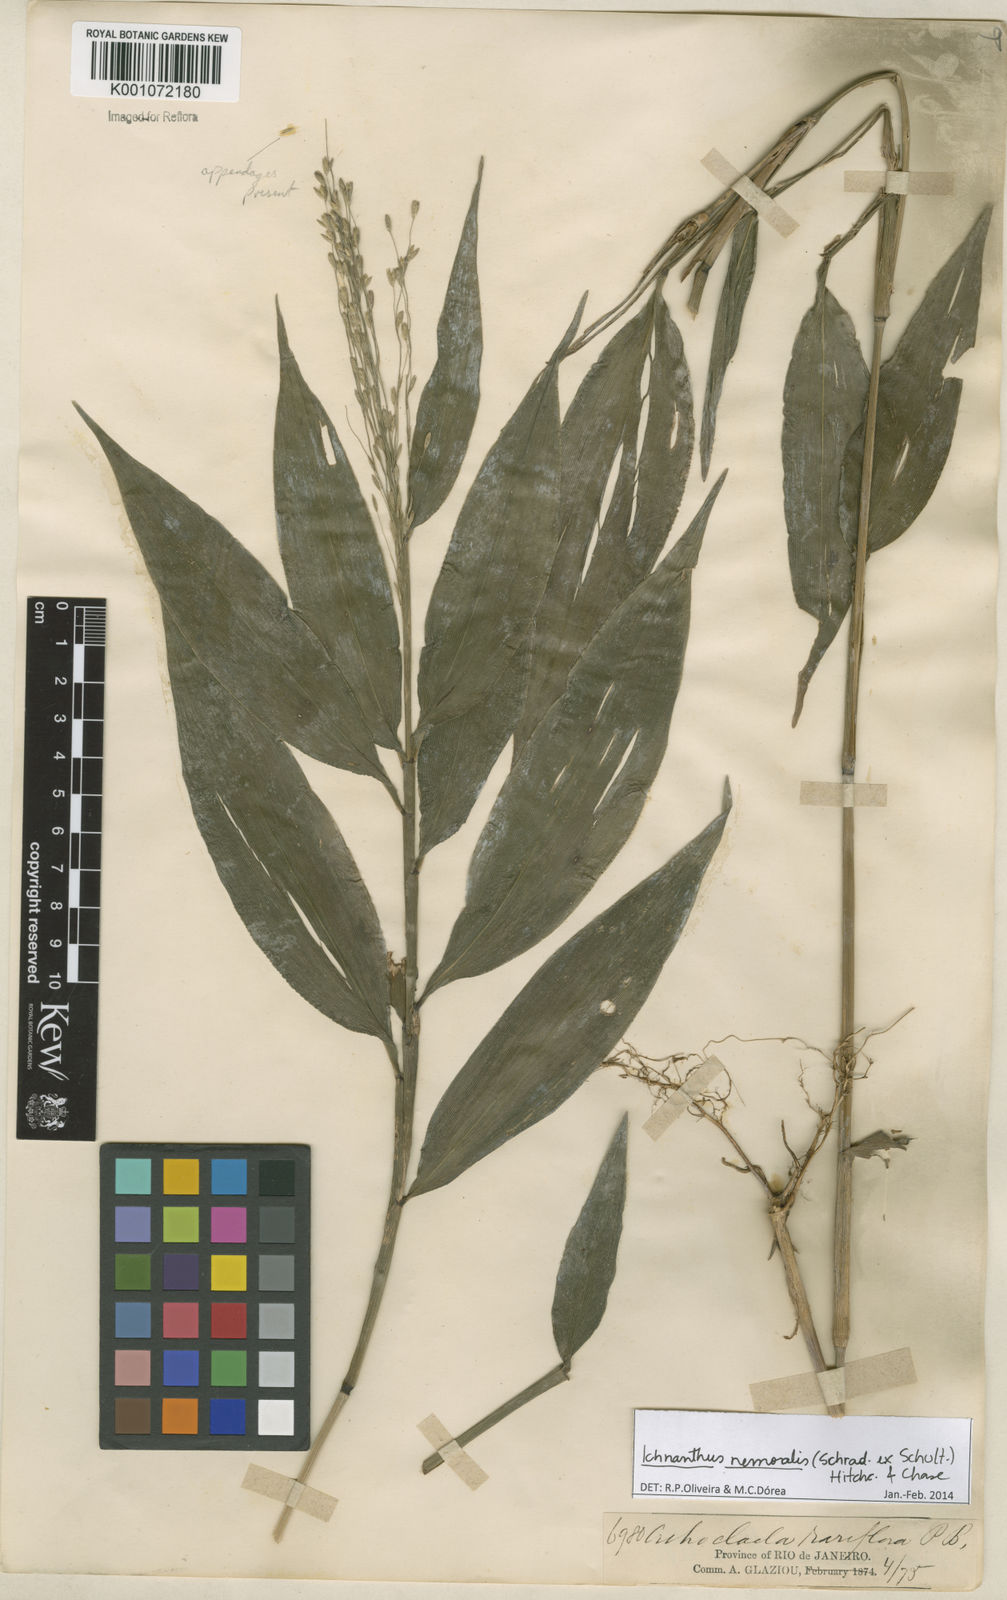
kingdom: Plantae
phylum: Tracheophyta
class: Liliopsida
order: Poales
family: Poaceae
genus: Ichnanthus
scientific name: Ichnanthus nemoralis
